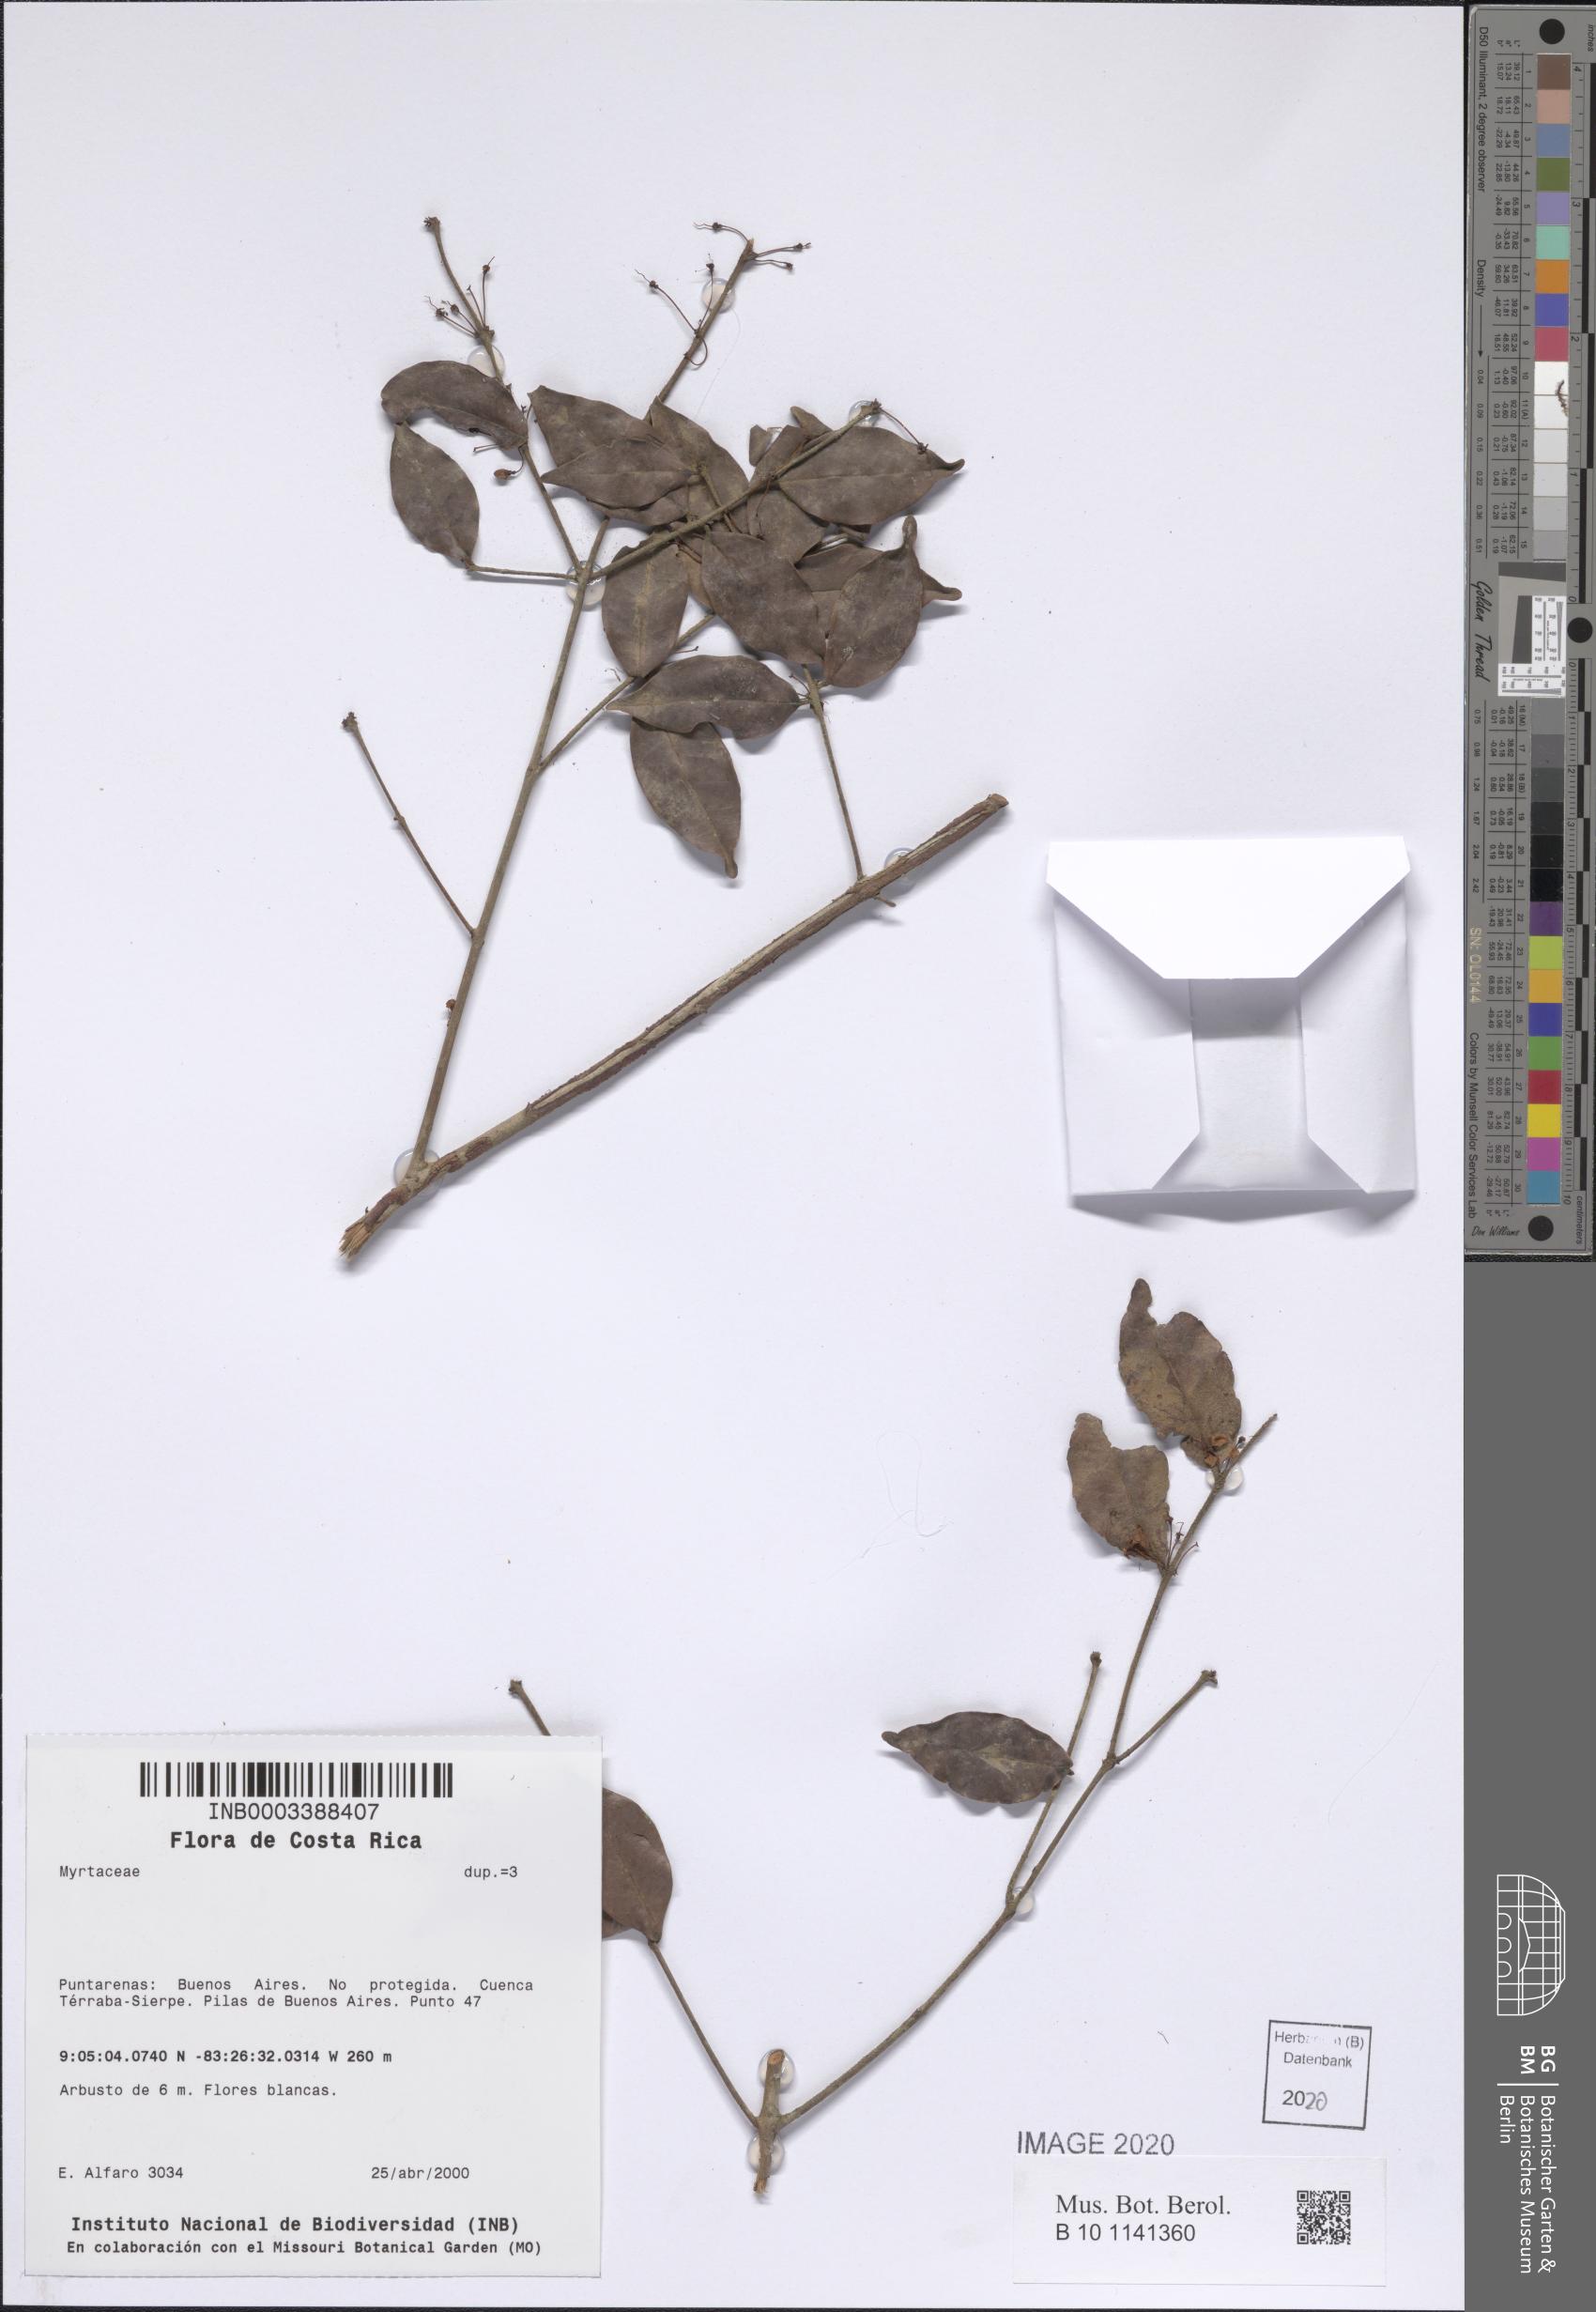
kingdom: Plantae
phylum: Tracheophyta
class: Magnoliopsida
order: Myrtales
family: Myrtaceae
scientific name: Myrtaceae
